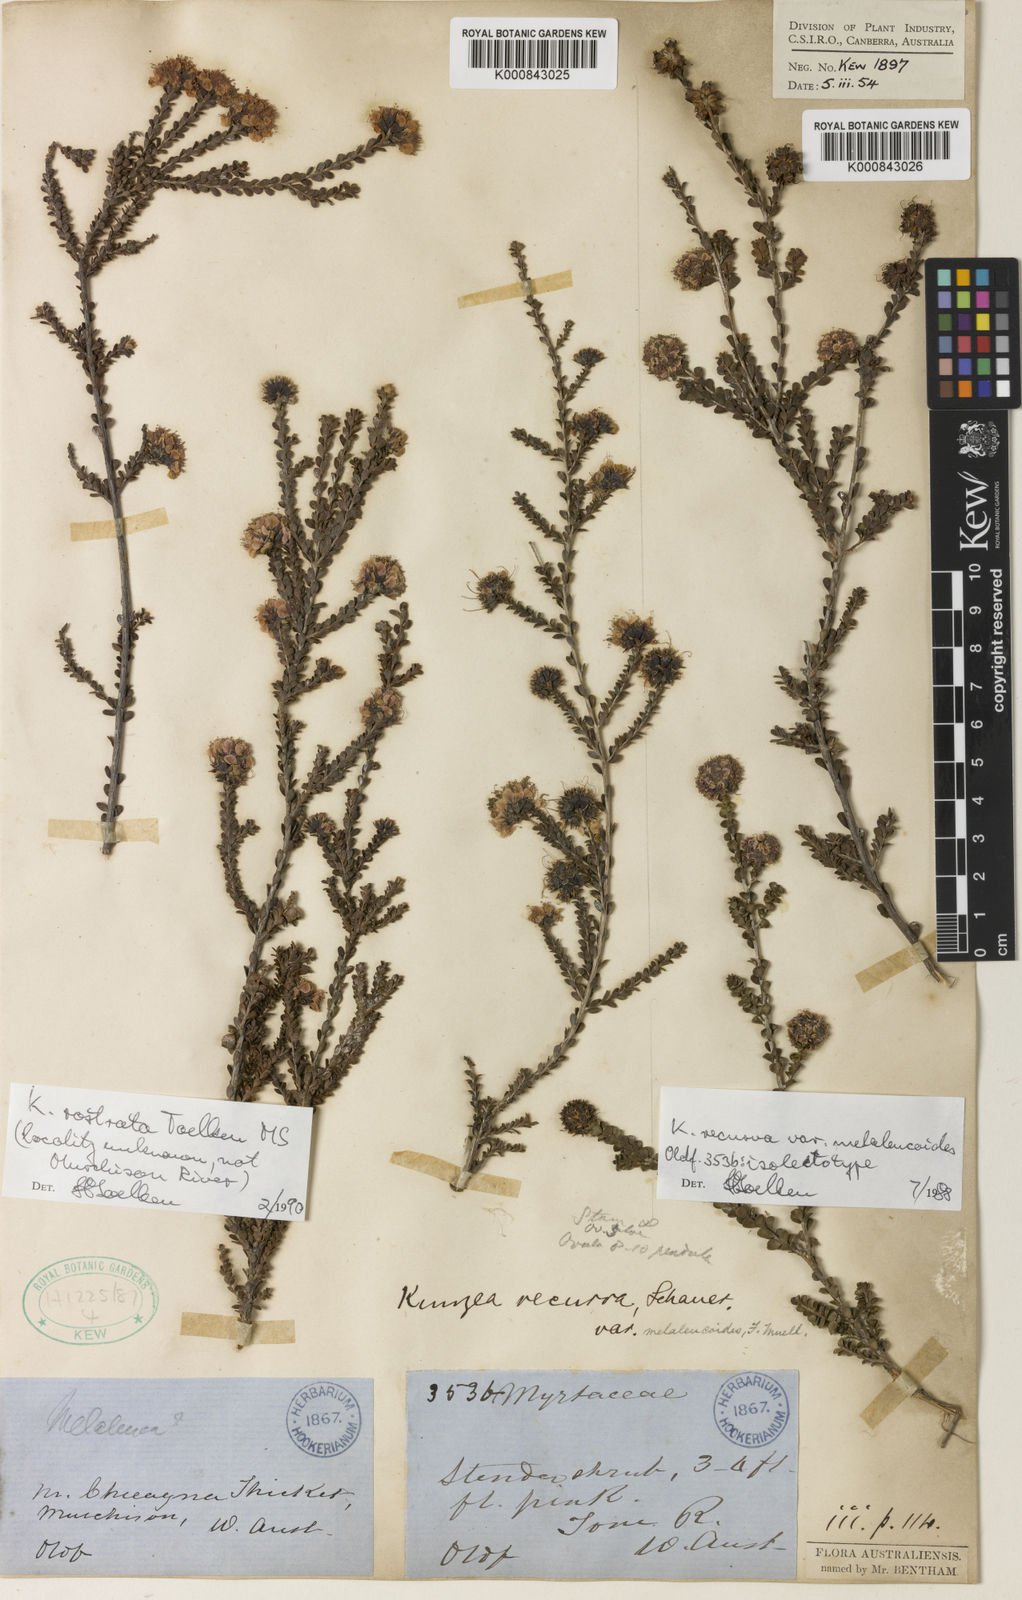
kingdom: Plantae
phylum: Tracheophyta
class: Magnoliopsida
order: Myrtales
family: Myrtaceae
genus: Kunzea
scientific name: Kunzea recurva
